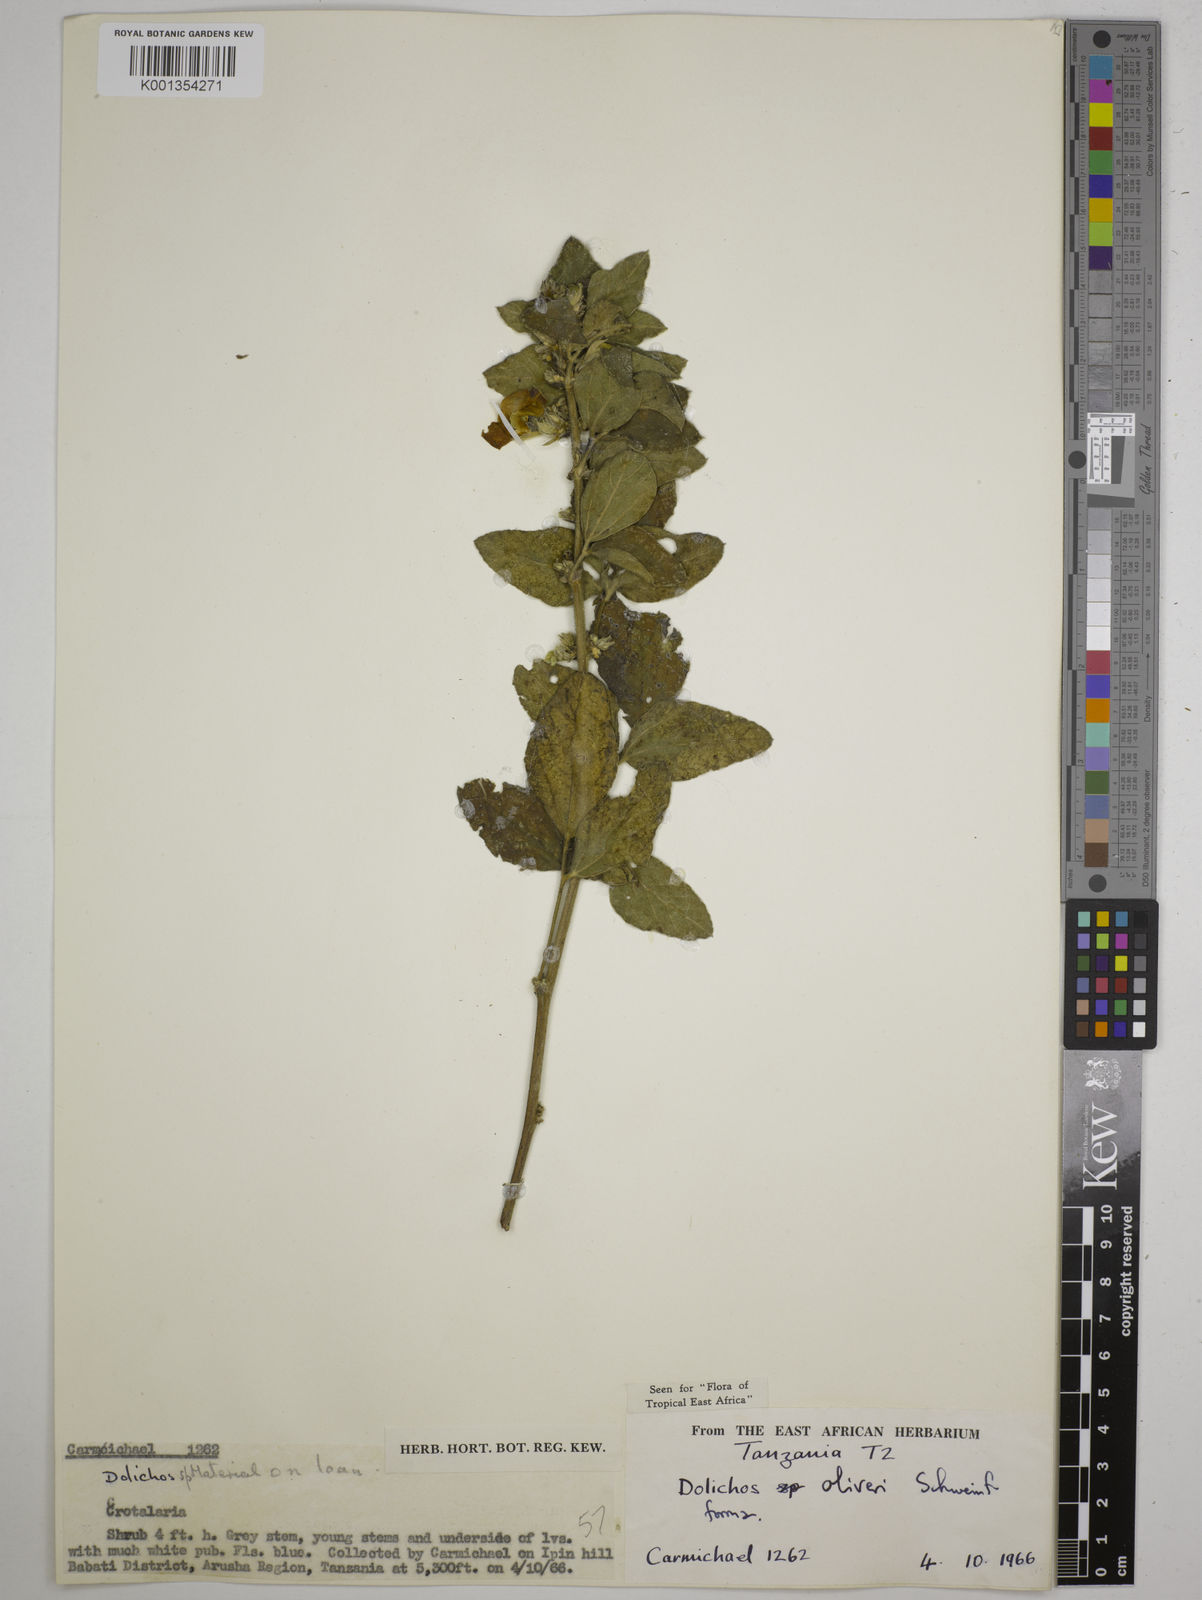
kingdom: Plantae
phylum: Tracheophyta
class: Magnoliopsida
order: Fabales
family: Fabaceae
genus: Dolichos
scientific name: Dolichos oliveri
